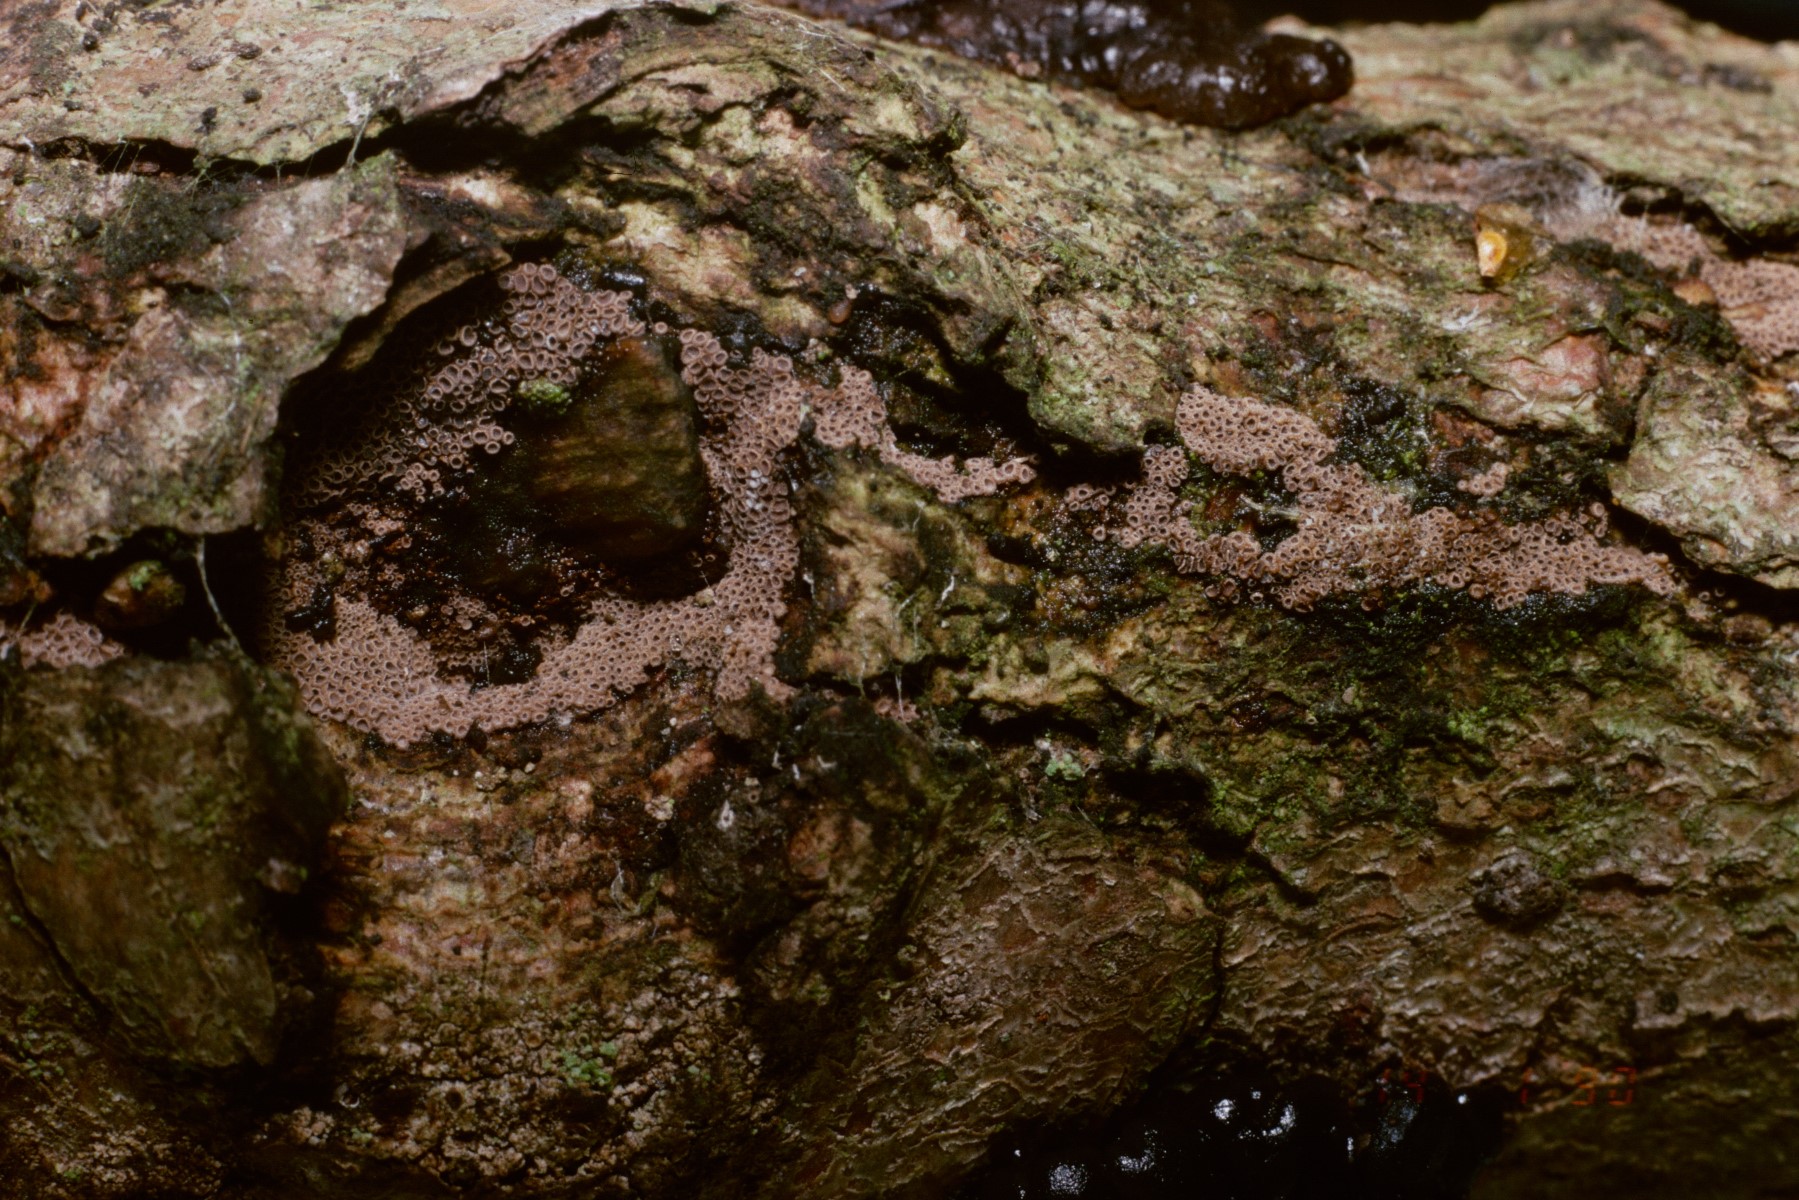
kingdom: Fungi
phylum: Basidiomycota
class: Agaricomycetes
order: Agaricales
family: Niaceae
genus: Merismodes
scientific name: Merismodes anomala
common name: almindelig læderskål
